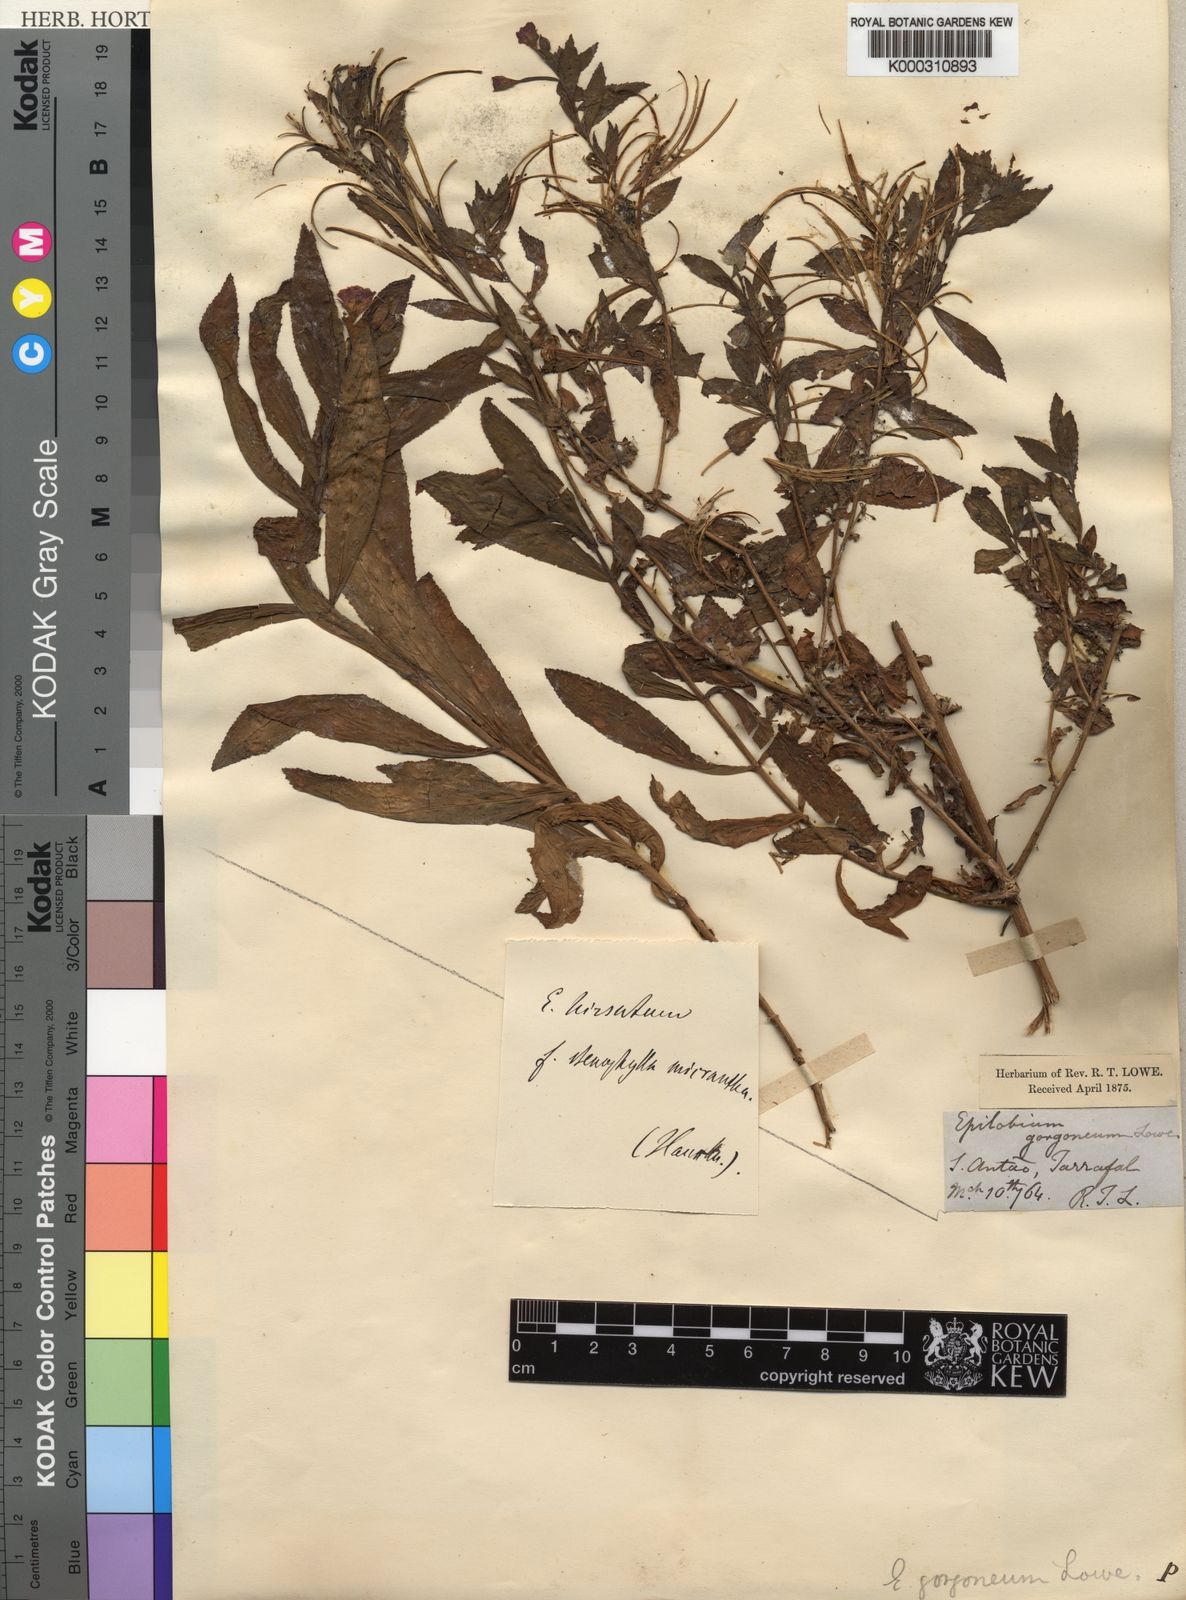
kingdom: Plantae
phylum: Tracheophyta
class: Magnoliopsida
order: Myrtales
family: Onagraceae
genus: Epilobium
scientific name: Epilobium hirsutum
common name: Great willowherb
